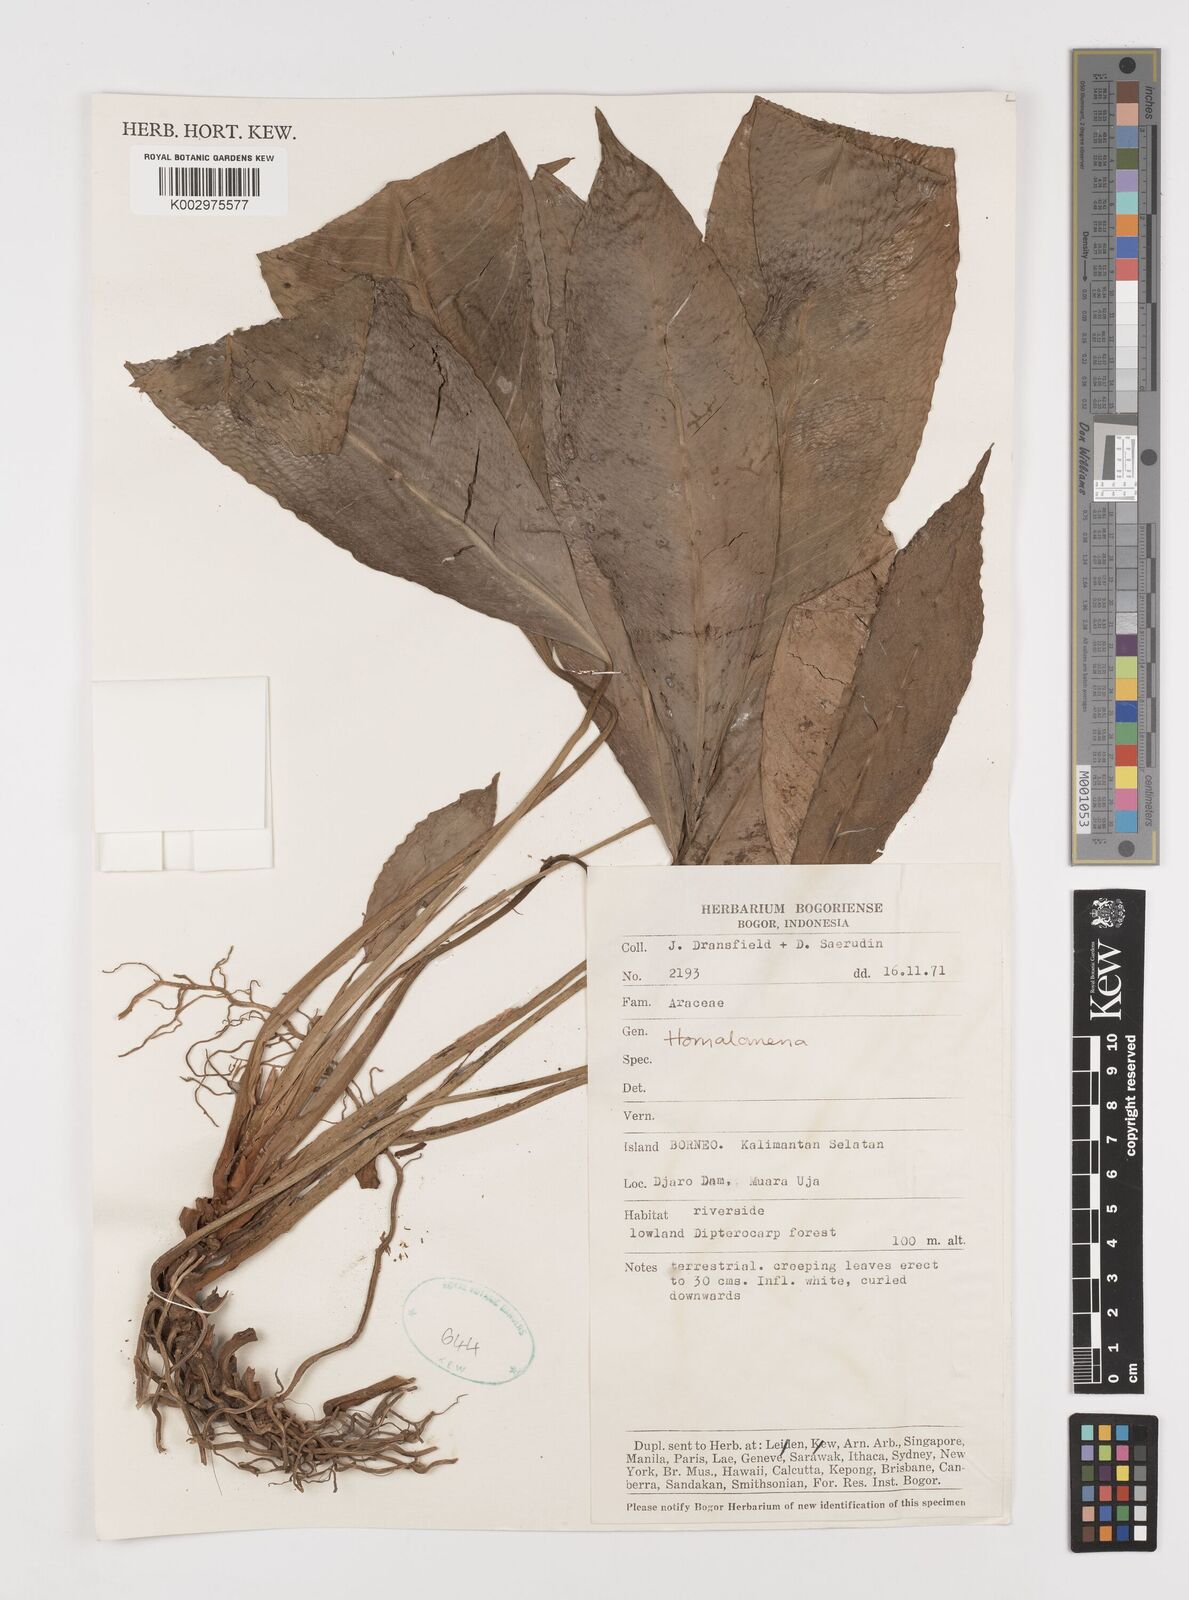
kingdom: Plantae
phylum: Tracheophyta
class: Liliopsida
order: Alismatales
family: Araceae
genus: Homalomena
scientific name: Homalomena
